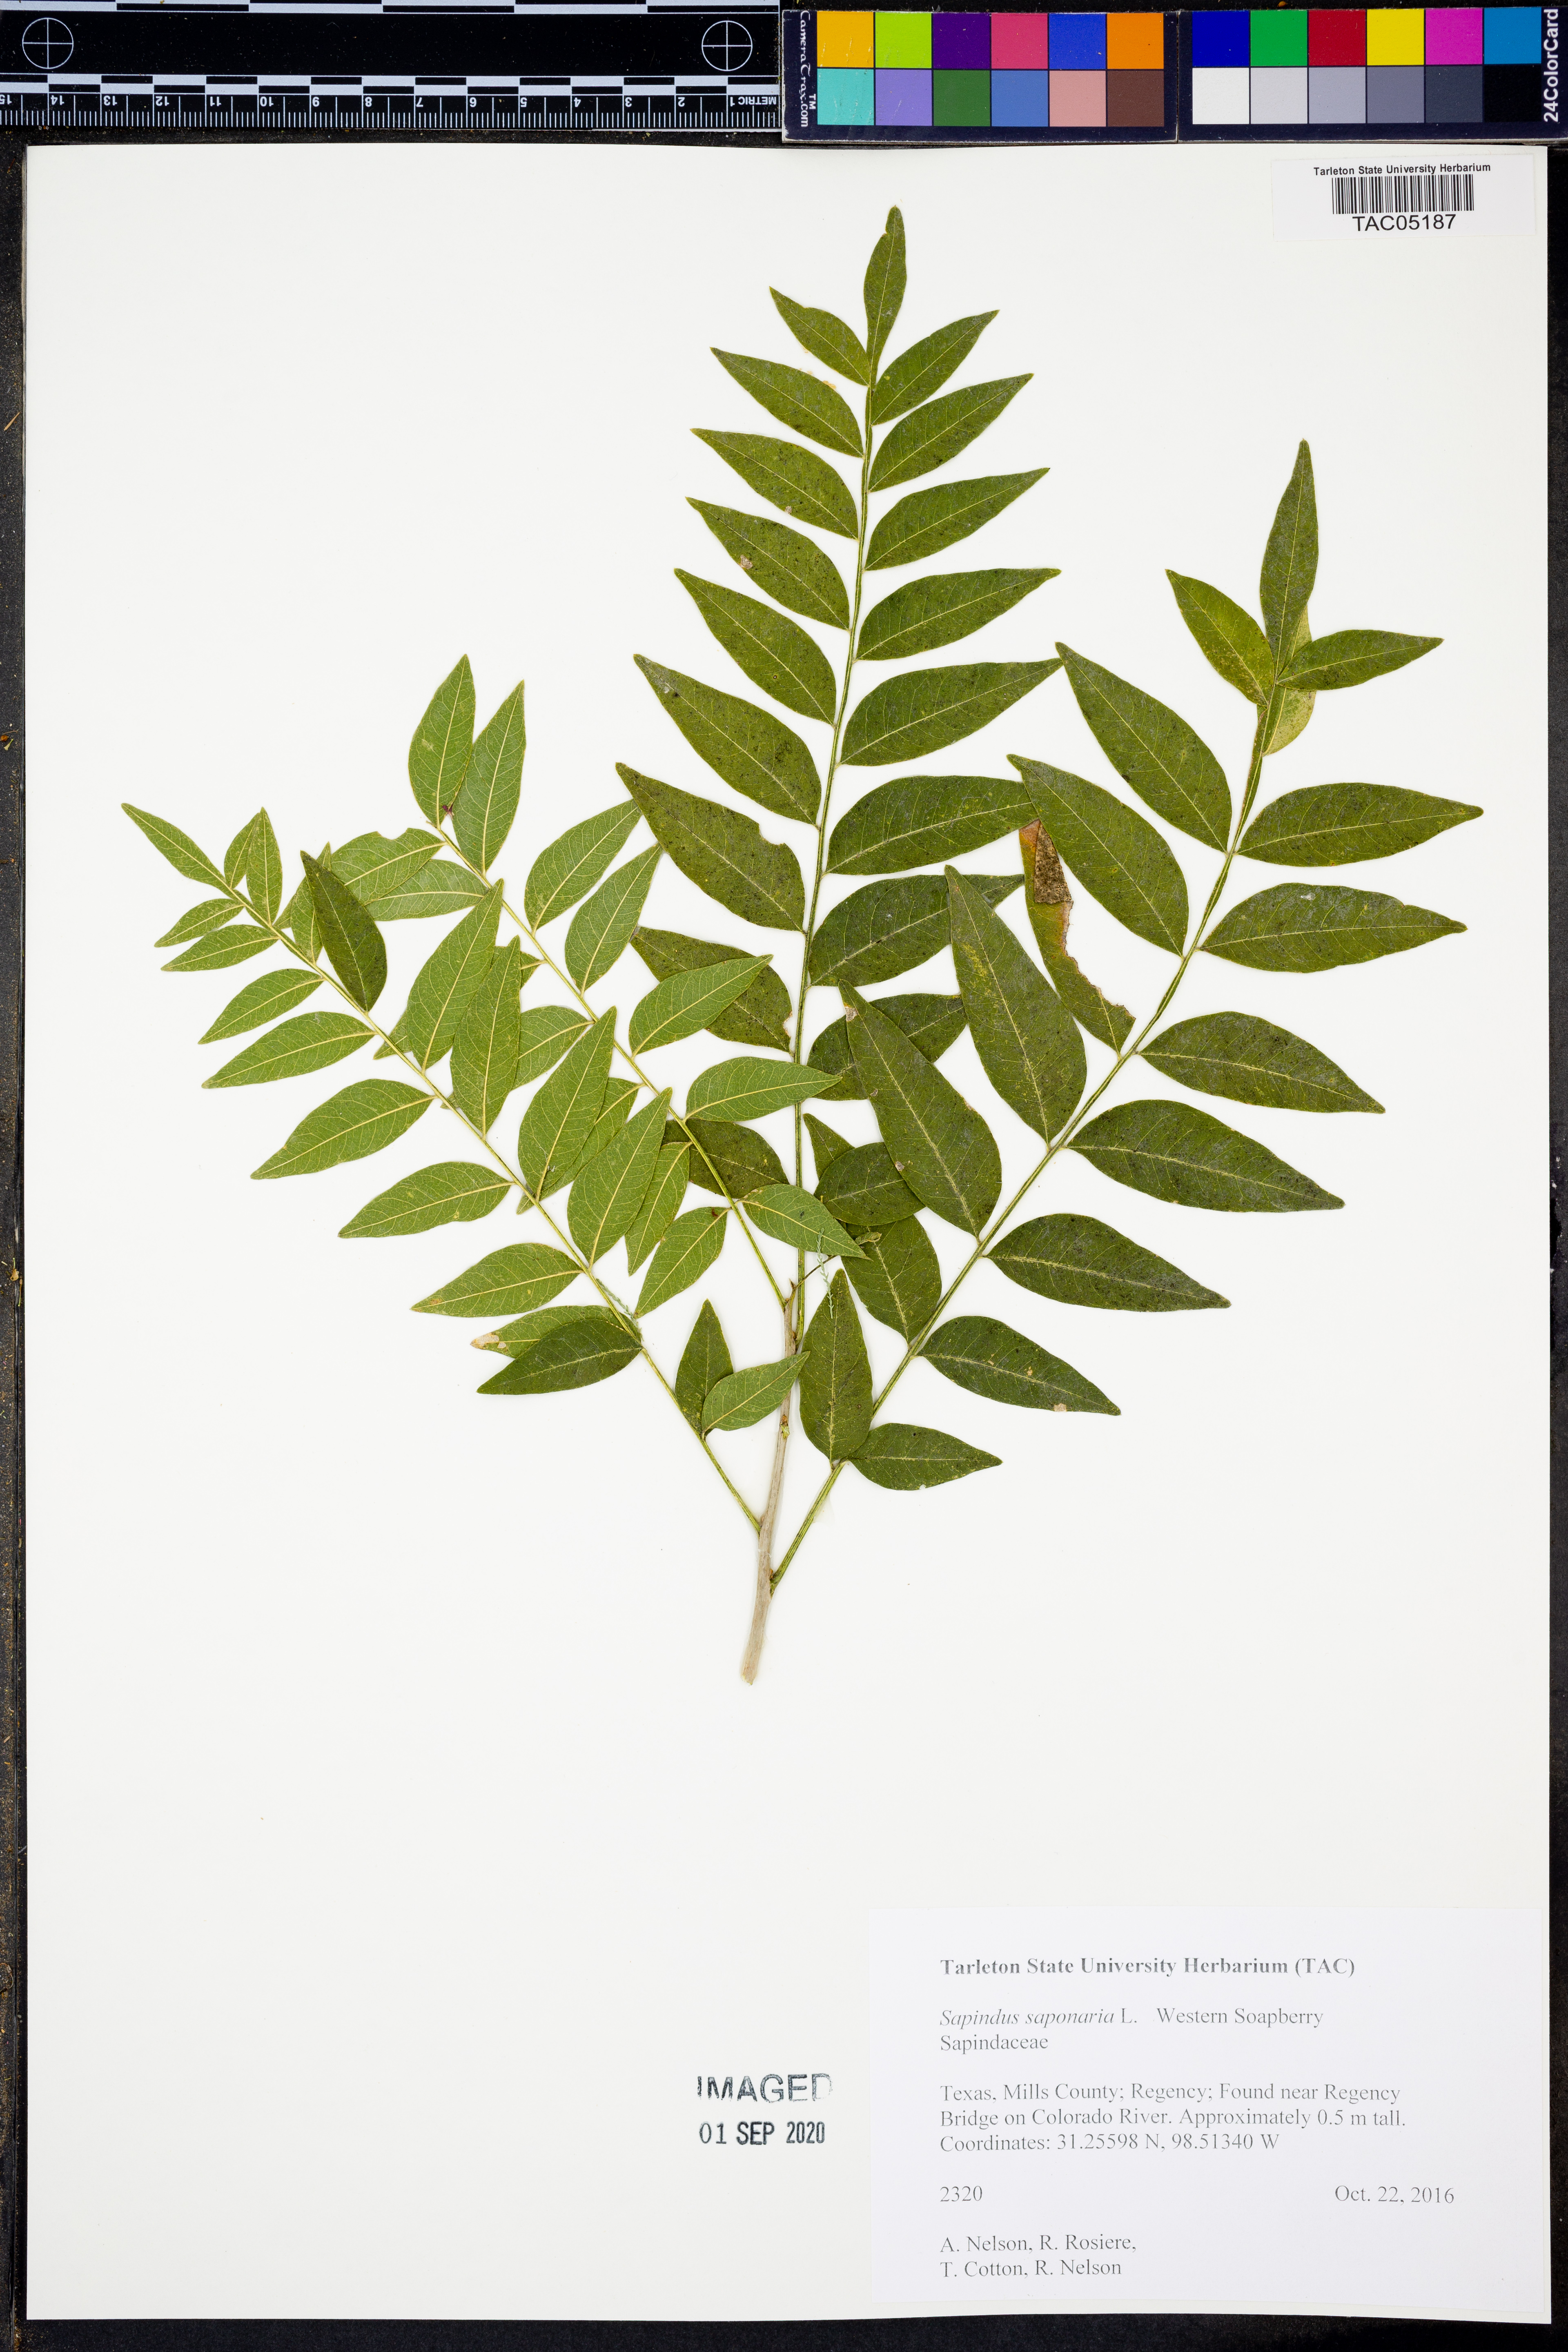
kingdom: Plantae
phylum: Tracheophyta
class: Magnoliopsida
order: Sapindales
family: Sapindaceae
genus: Sapindus
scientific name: Sapindus saponaria
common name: Wingleaf soapberry
